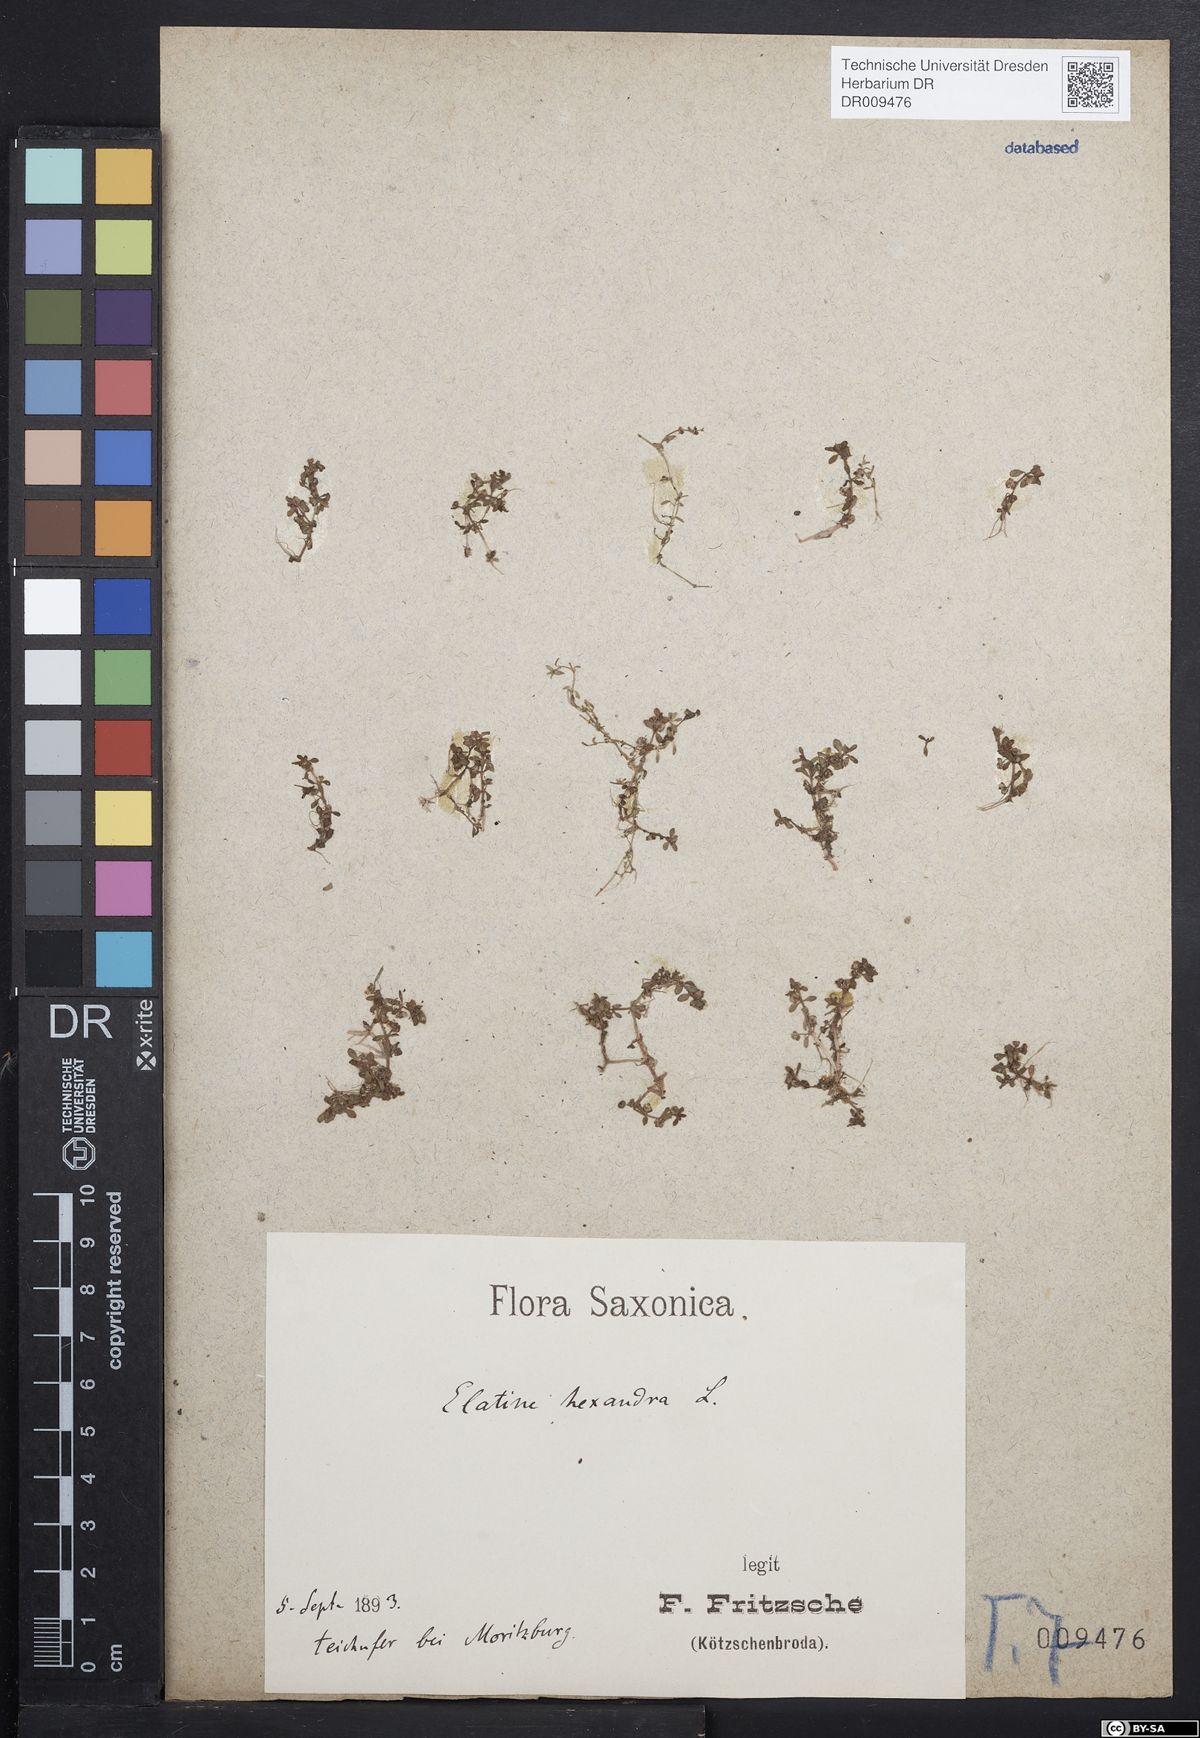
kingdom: Plantae
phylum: Tracheophyta
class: Magnoliopsida
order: Malpighiales
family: Elatinaceae
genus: Elatine
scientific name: Elatine hexandra
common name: Six-stamened waterwort
